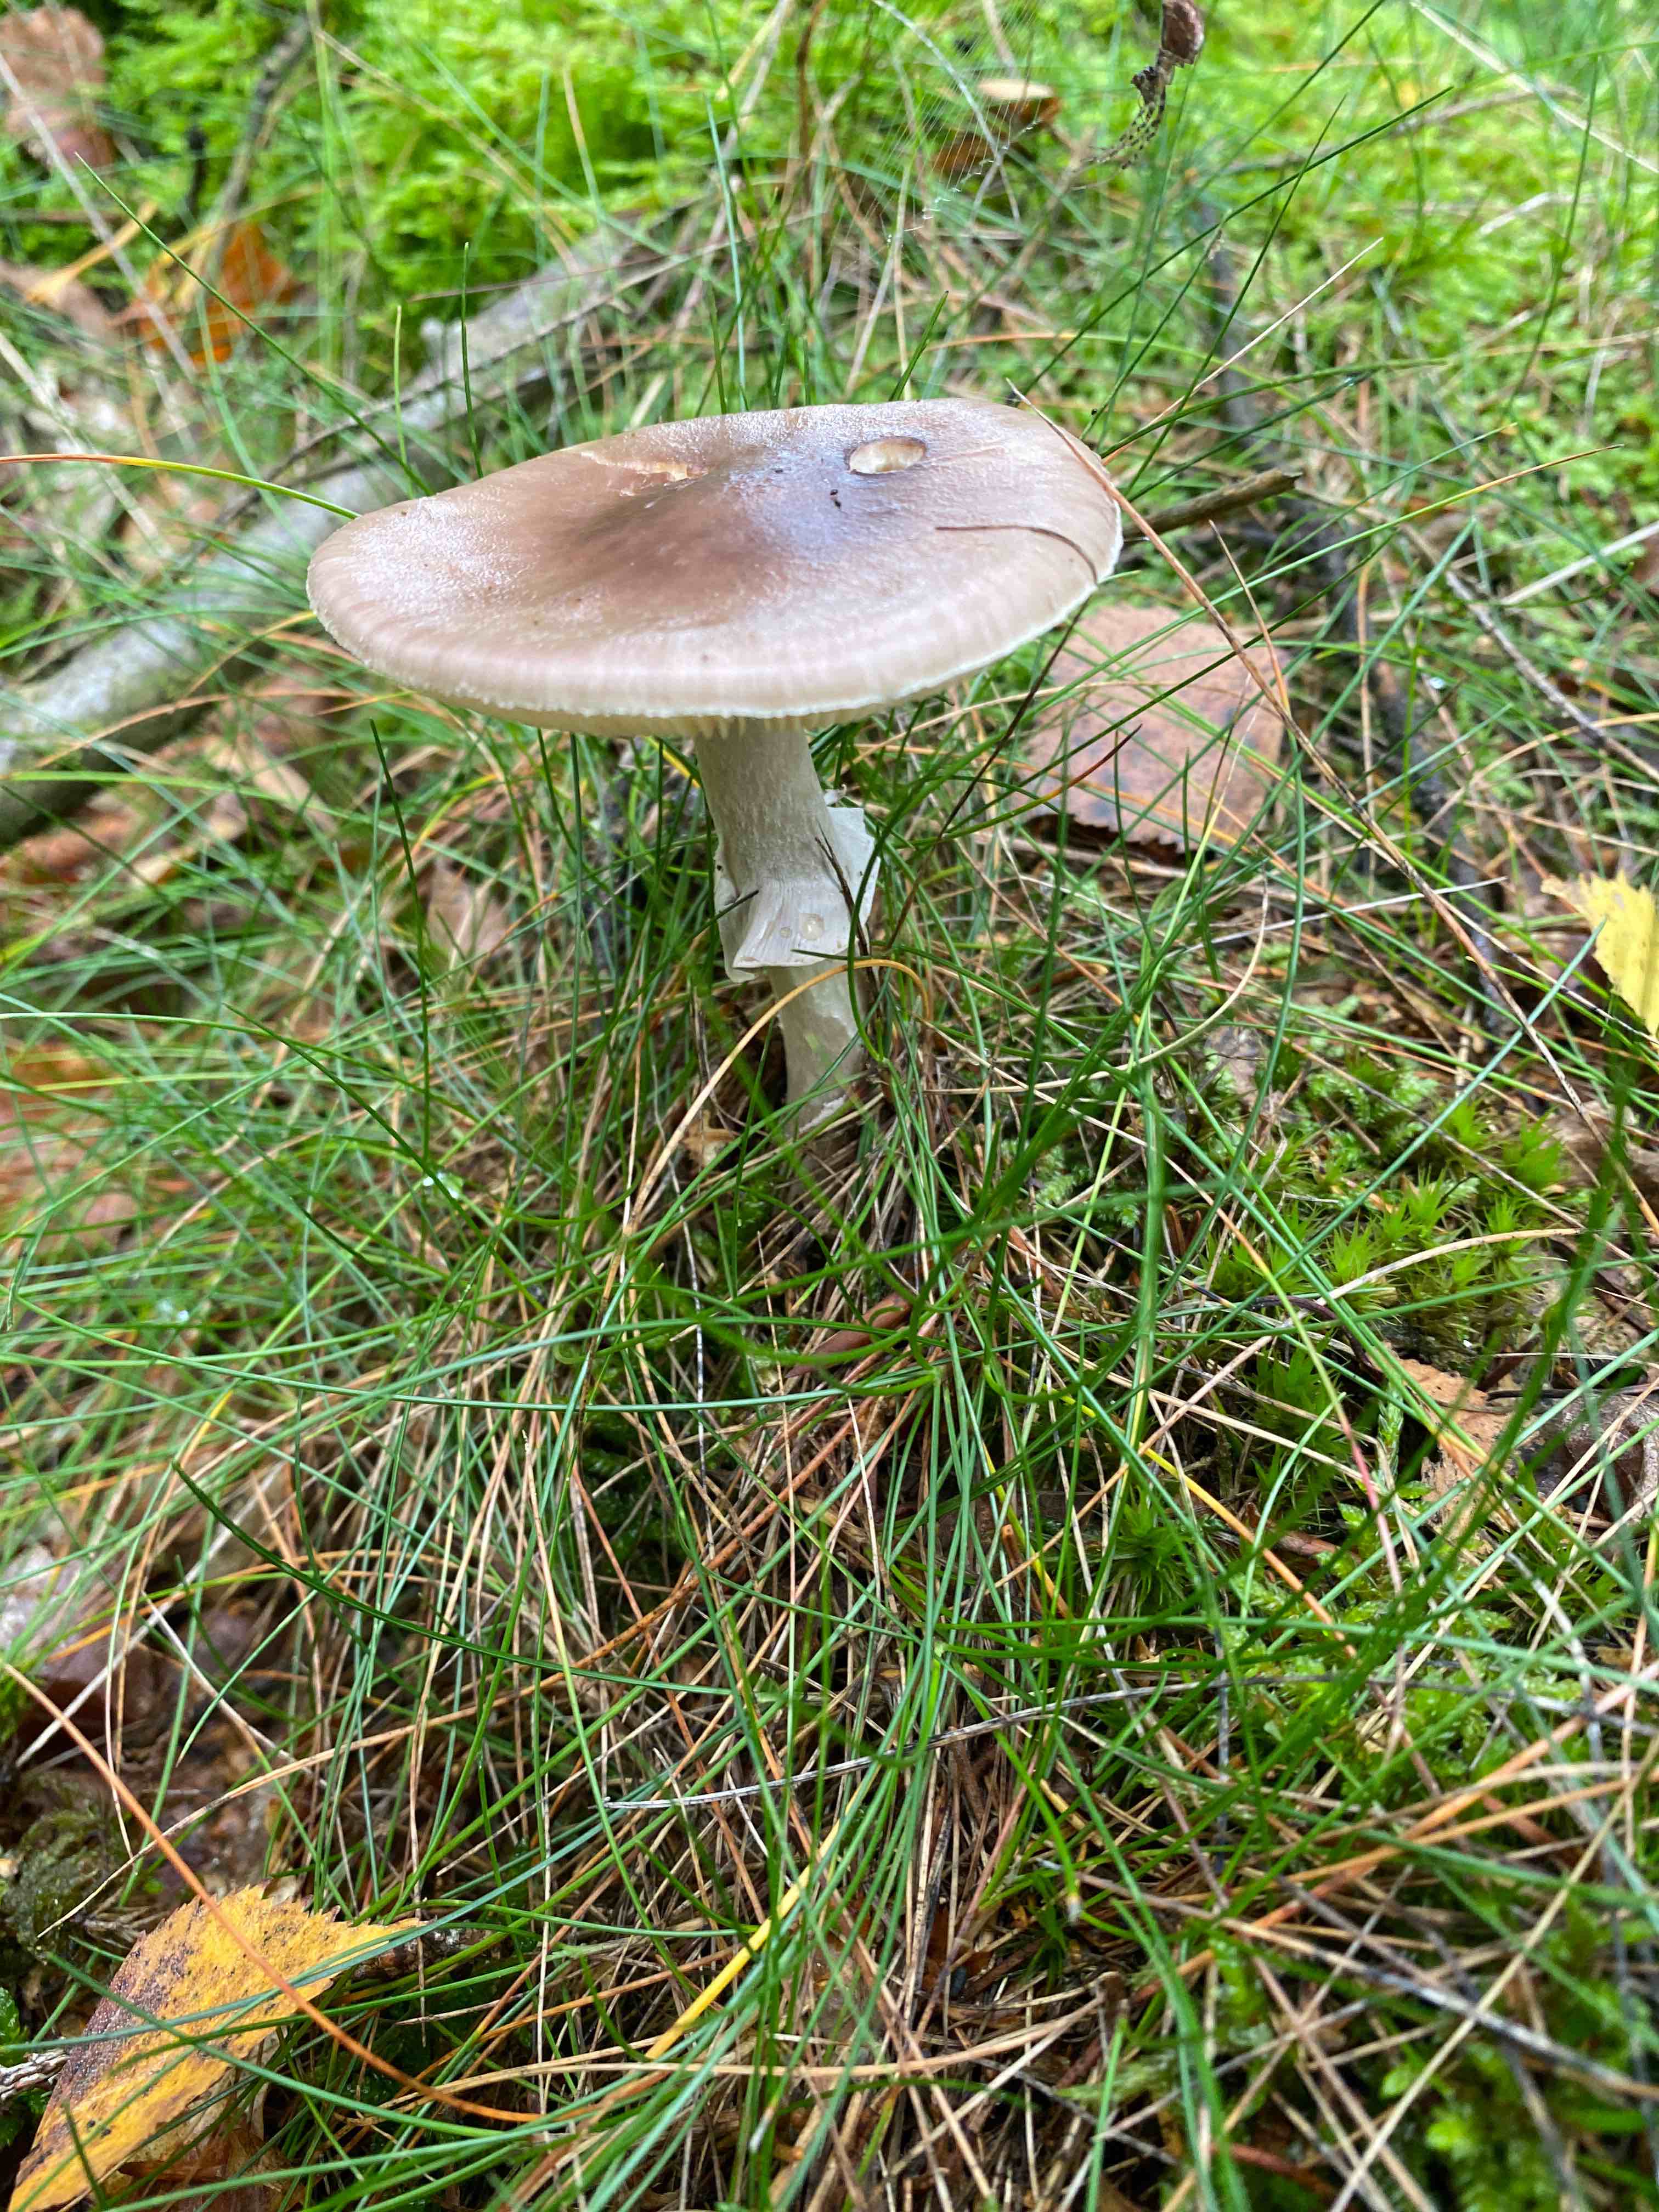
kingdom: Fungi
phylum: Basidiomycota
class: Agaricomycetes
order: Agaricales
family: Amanitaceae
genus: Amanita
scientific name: Amanita porphyria
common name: porfyr-fluesvamp
